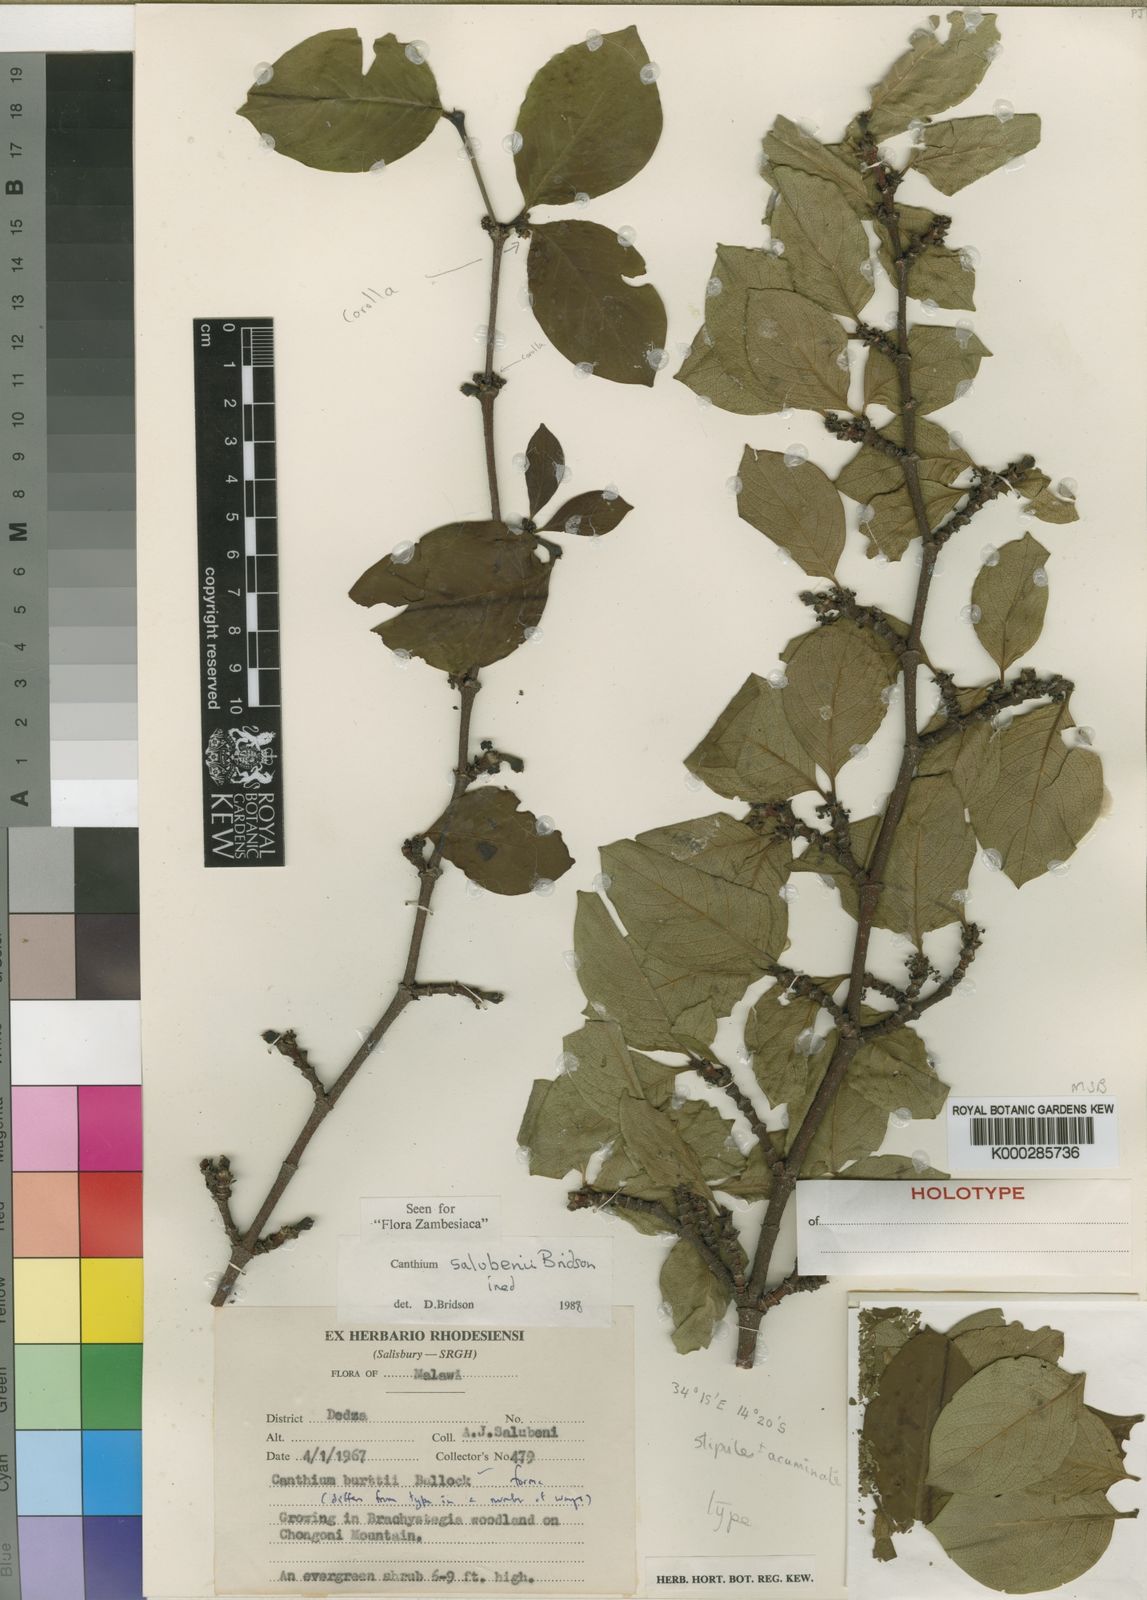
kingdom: Plantae
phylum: Tracheophyta
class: Magnoliopsida
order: Gentianales
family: Rubiaceae
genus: Afrocanthium
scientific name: Afrocanthium salubenii
